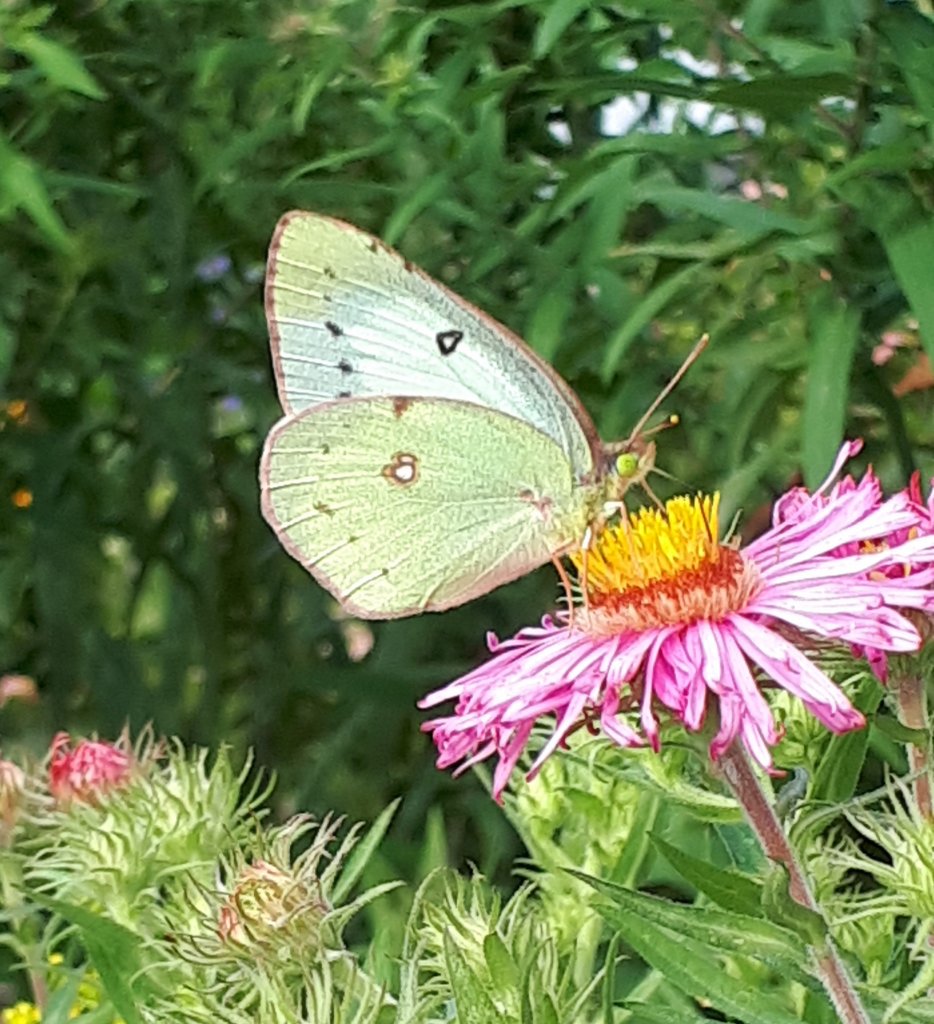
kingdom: Animalia
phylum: Arthropoda
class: Insecta
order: Lepidoptera
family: Pieridae
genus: Colias
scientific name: Colias philodice
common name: Clouded Sulphur
